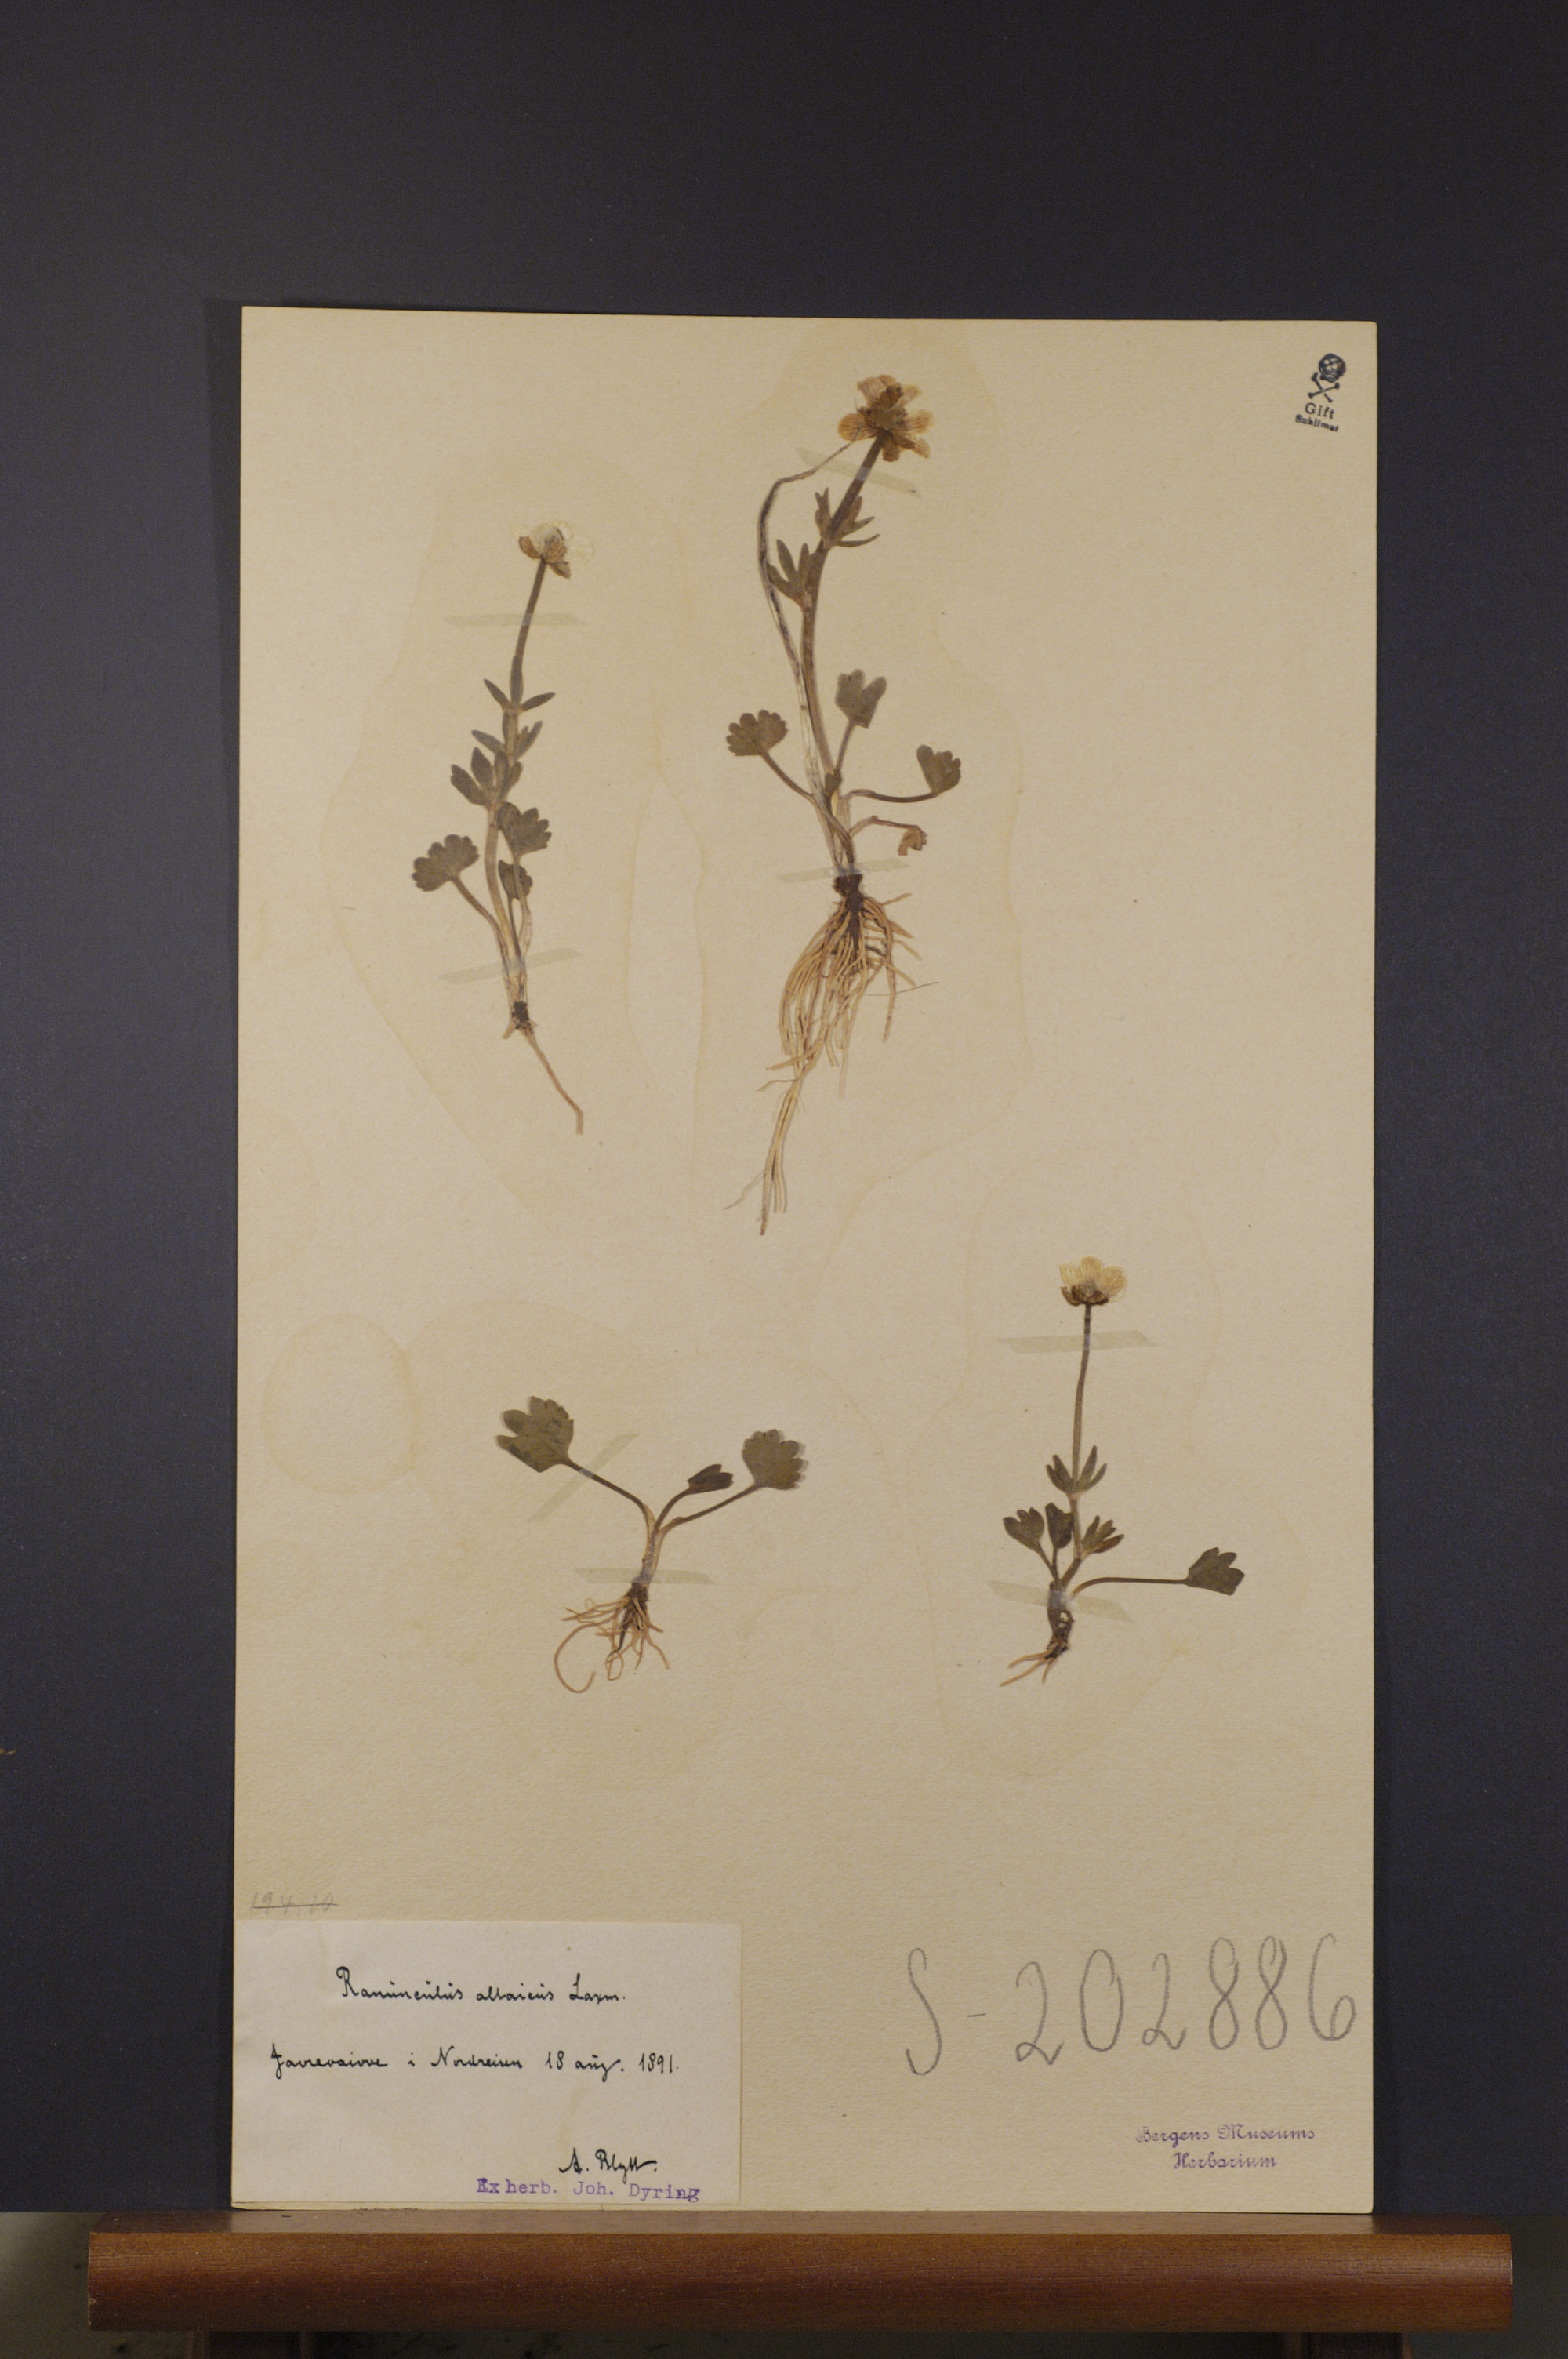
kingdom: Plantae
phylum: Tracheophyta
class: Magnoliopsida
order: Ranunculales
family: Ranunculaceae
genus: Ranunculus
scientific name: Ranunculus sulphureus
